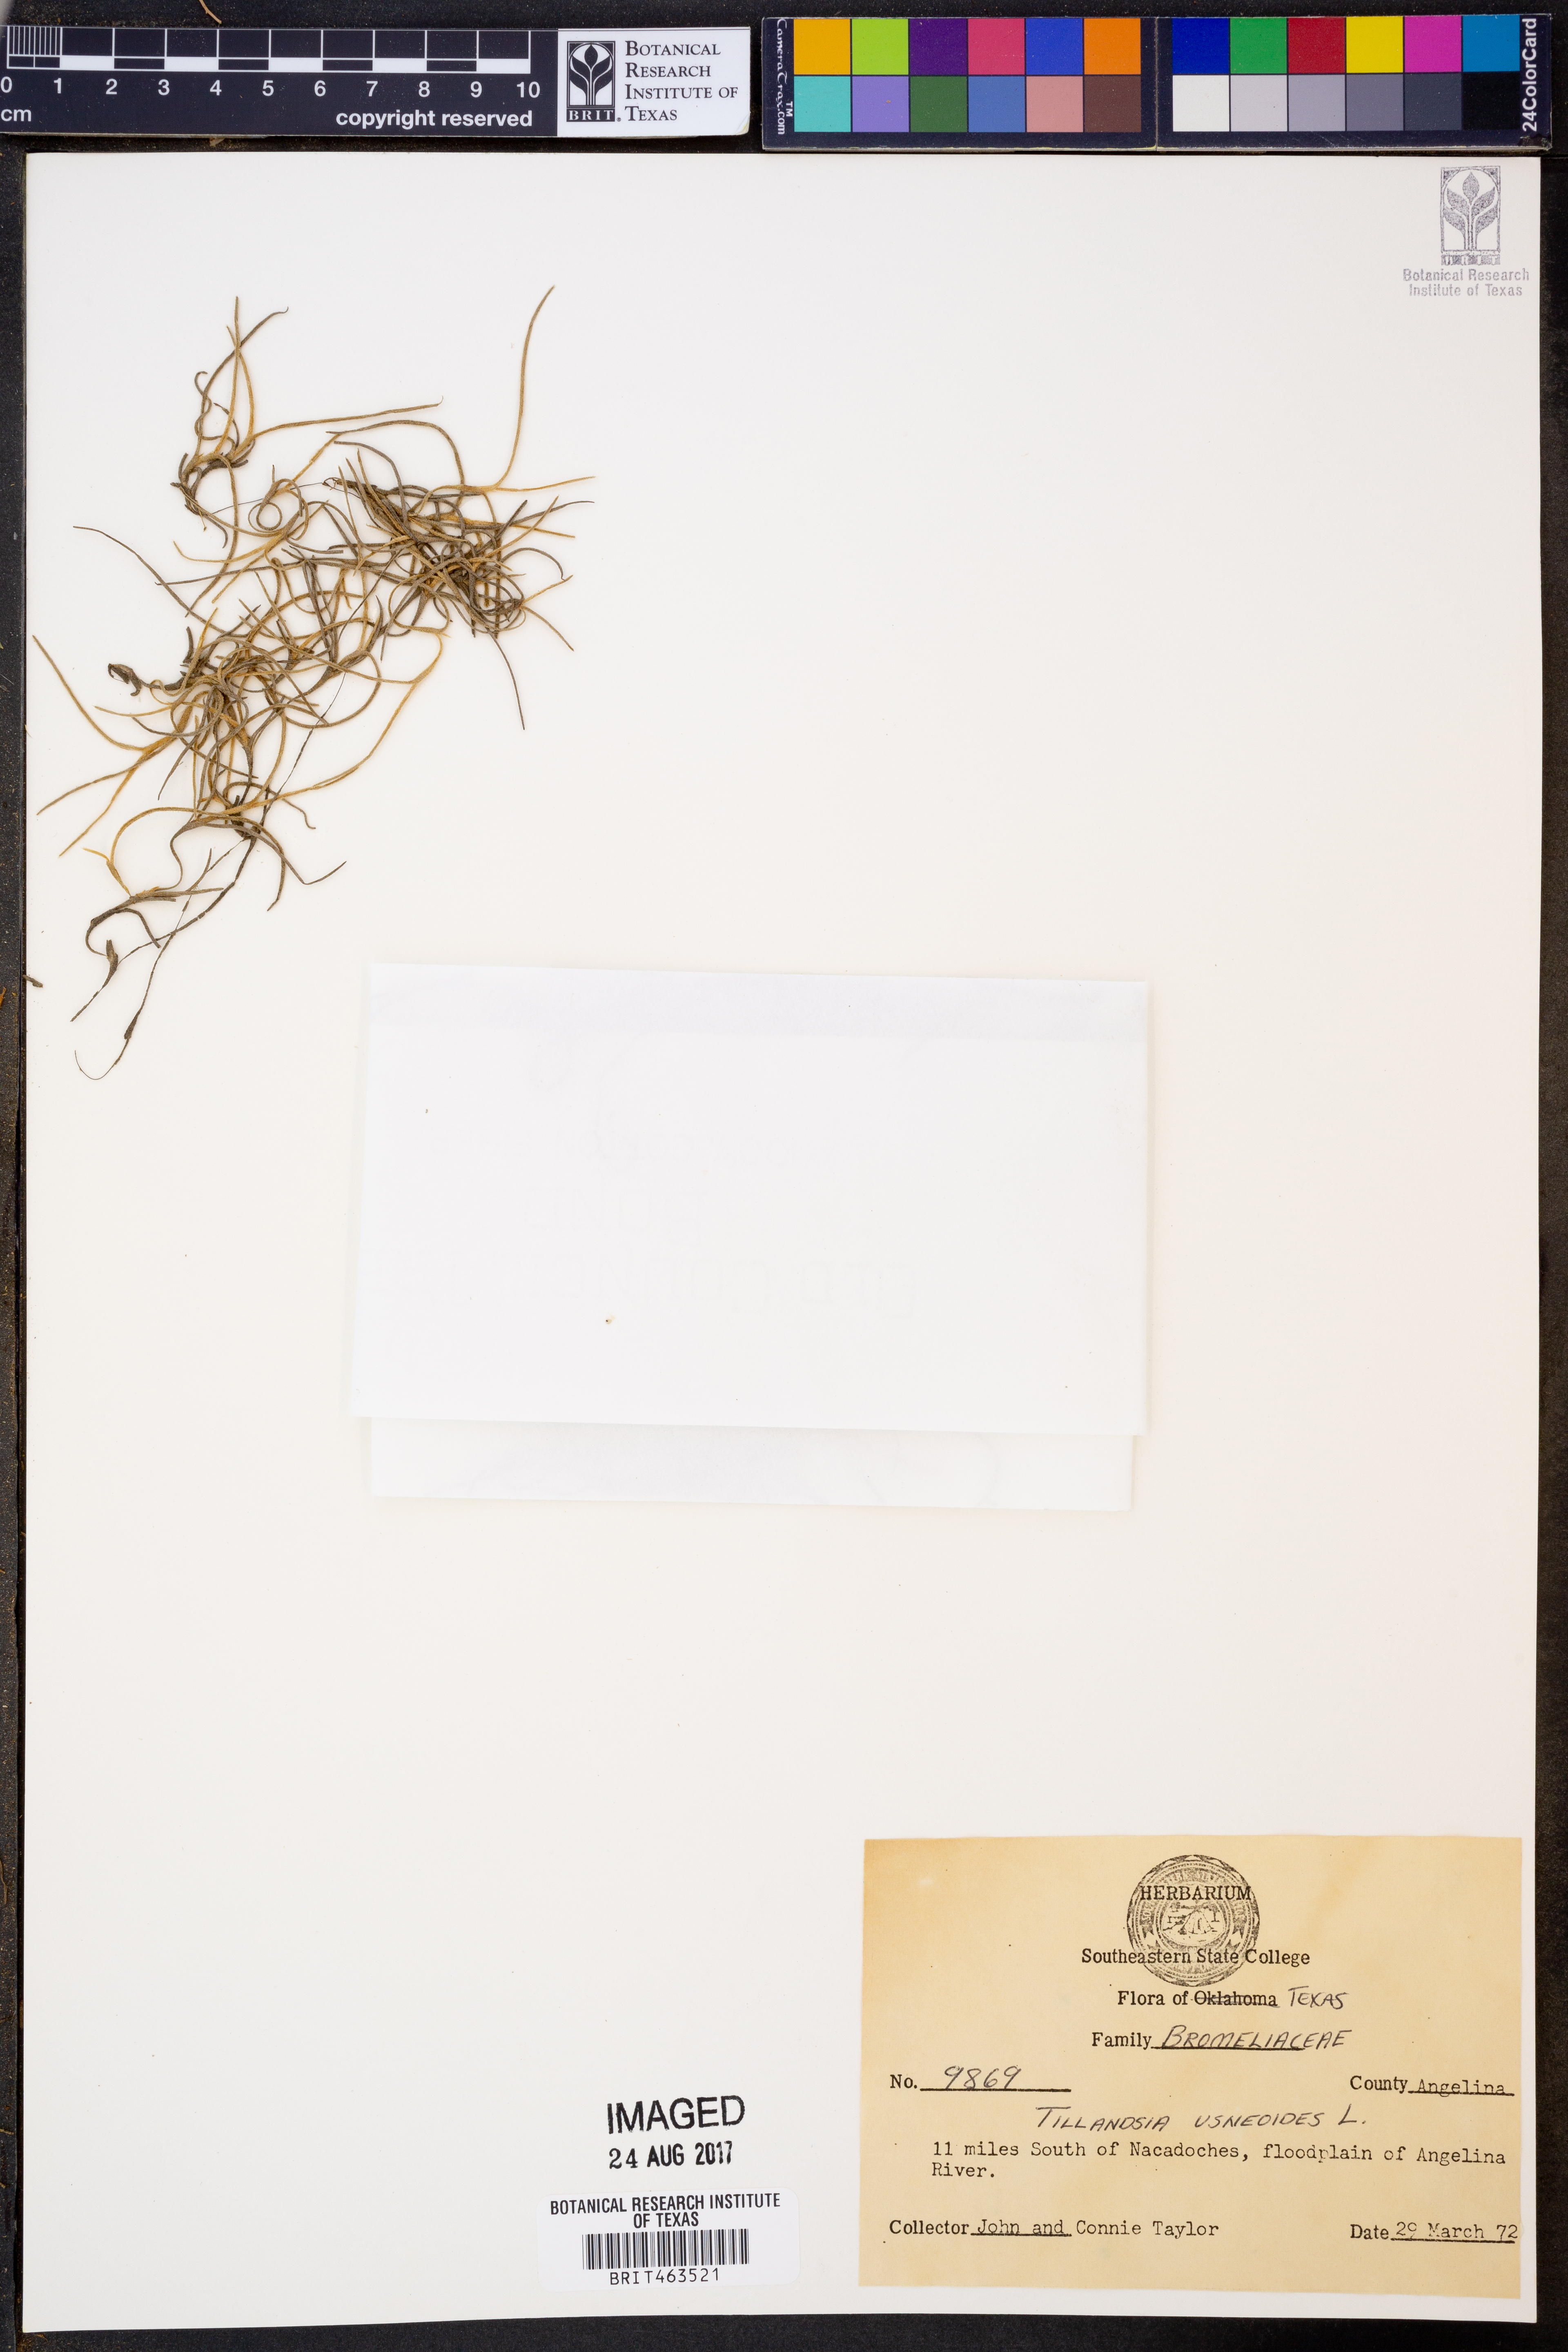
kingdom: Plantae
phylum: Tracheophyta
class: Liliopsida
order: Poales
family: Bromeliaceae
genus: Tillandsia
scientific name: Tillandsia usneoides
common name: Spanish moss
